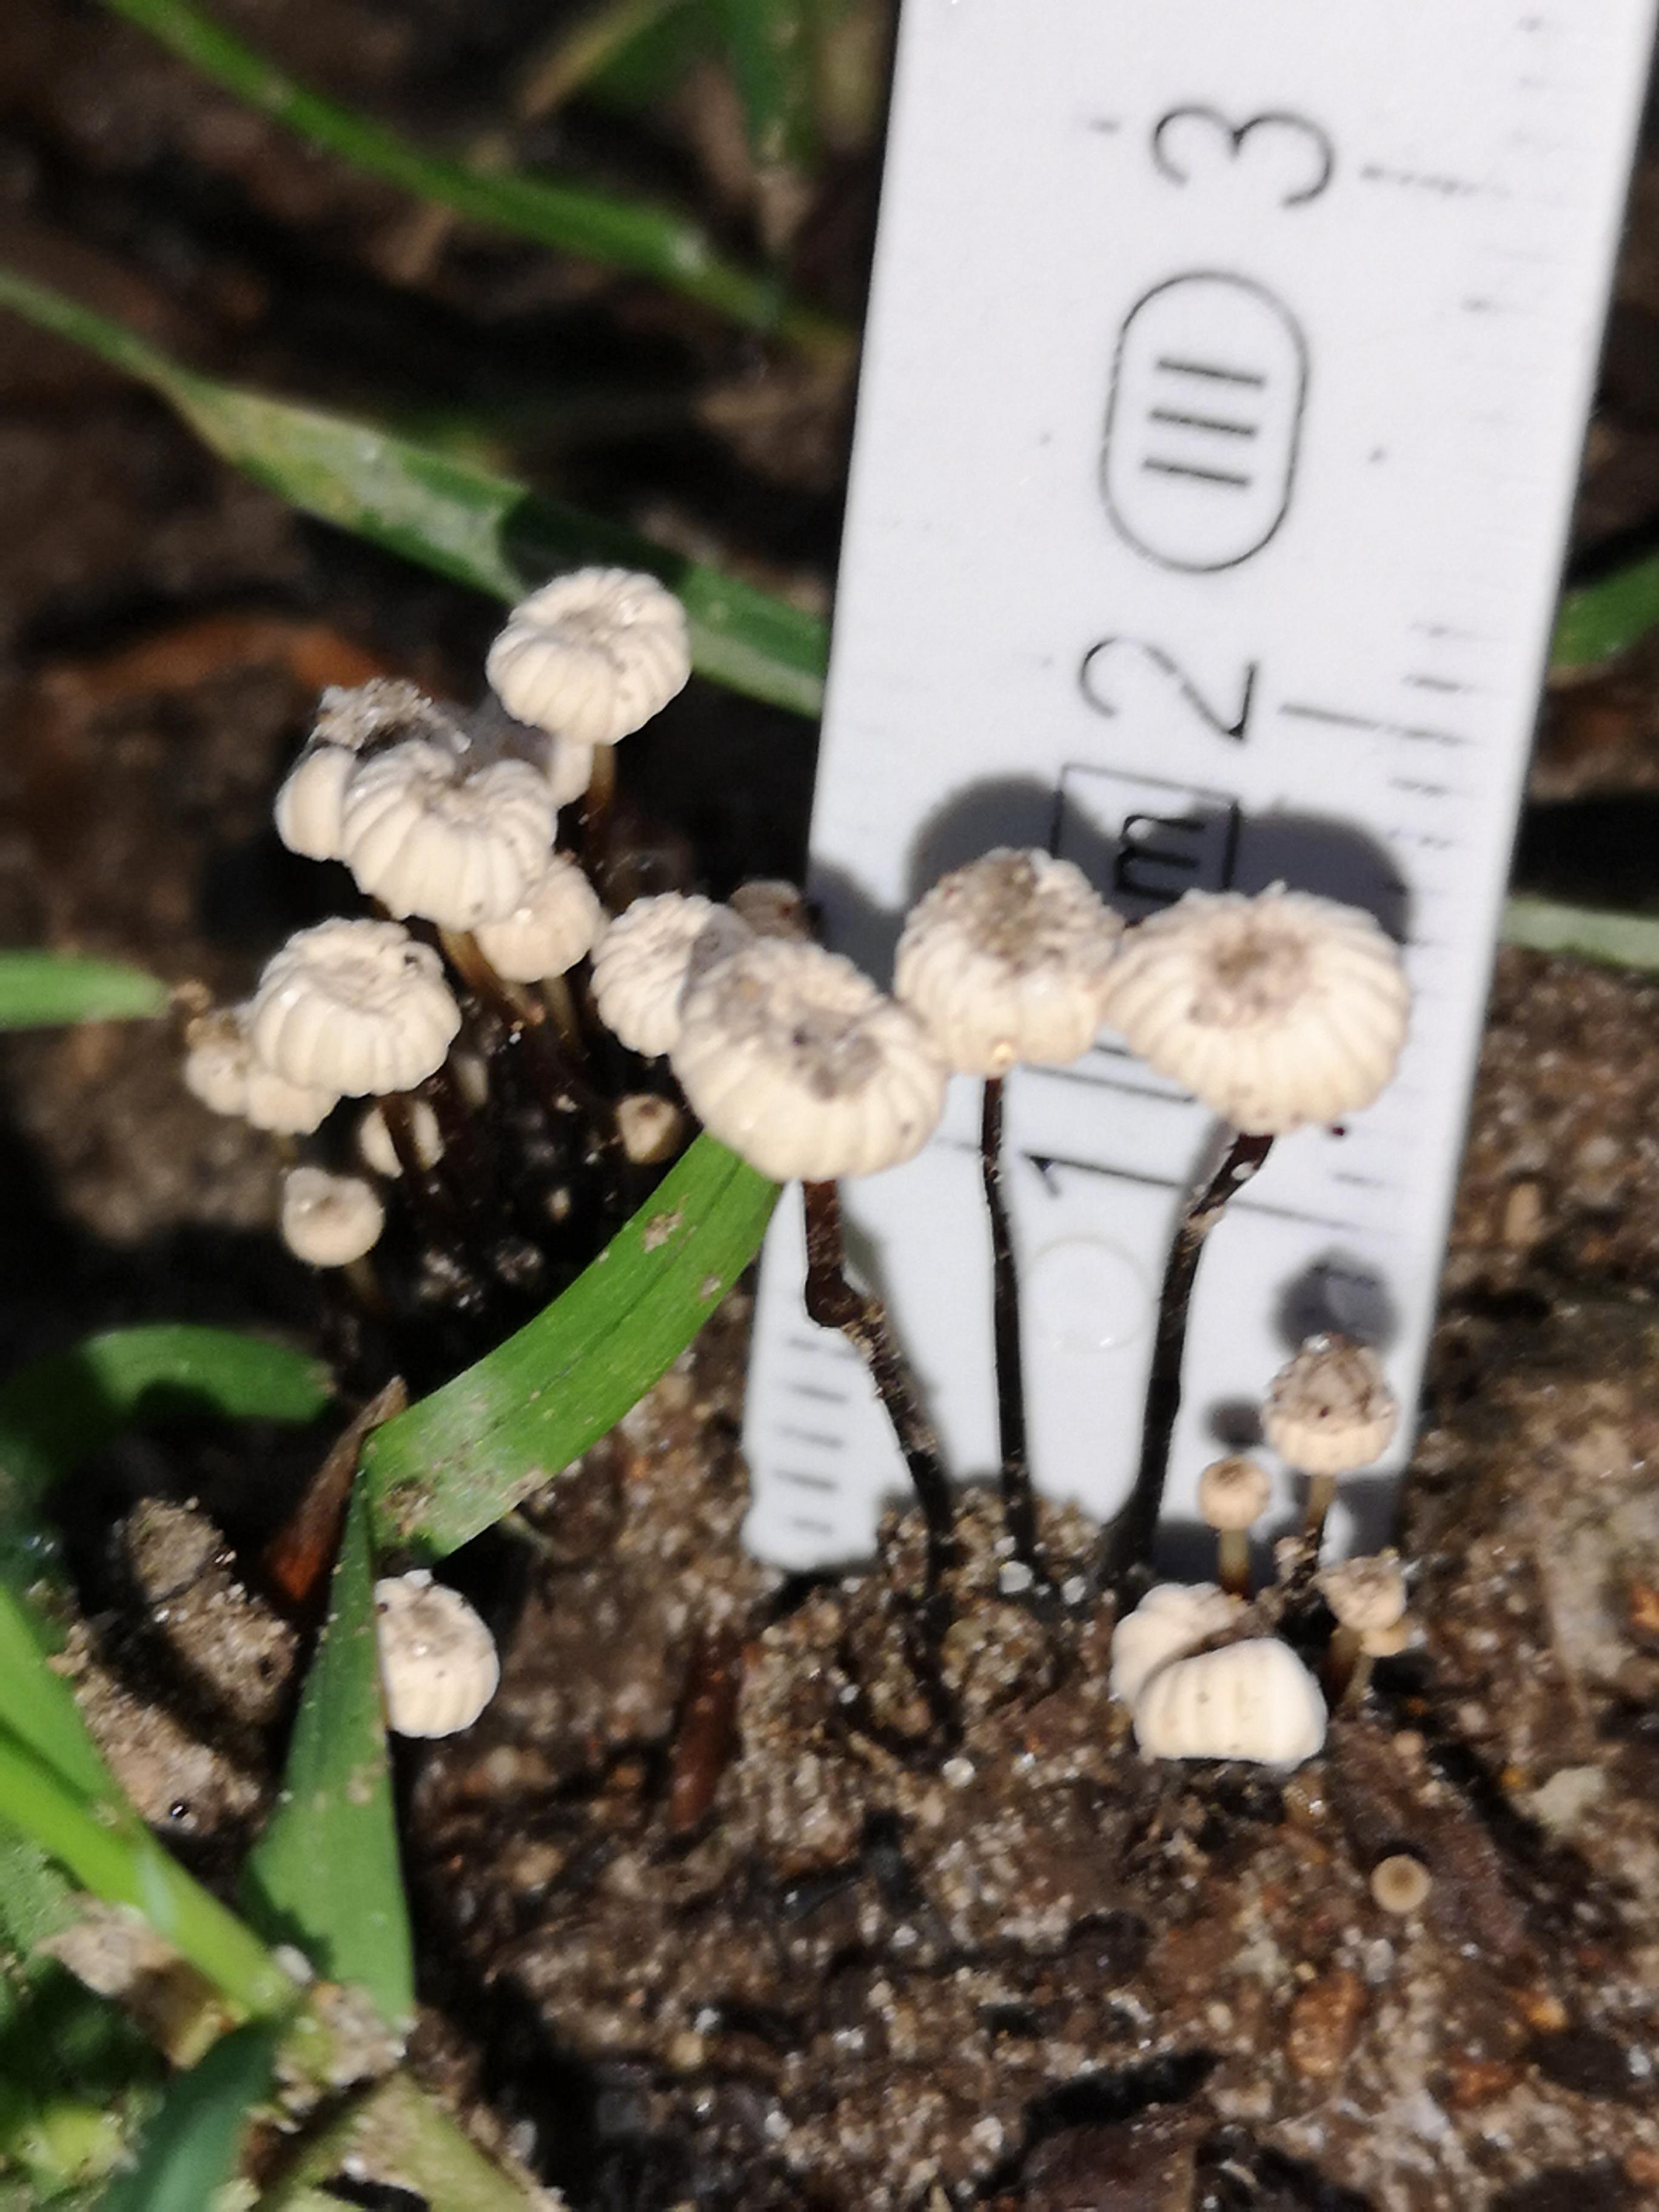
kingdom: Fungi
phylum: Basidiomycota
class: Agaricomycetes
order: Agaricales
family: Marasmiaceae
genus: Marasmius
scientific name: Marasmius rotula
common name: hjul-bruskhat
